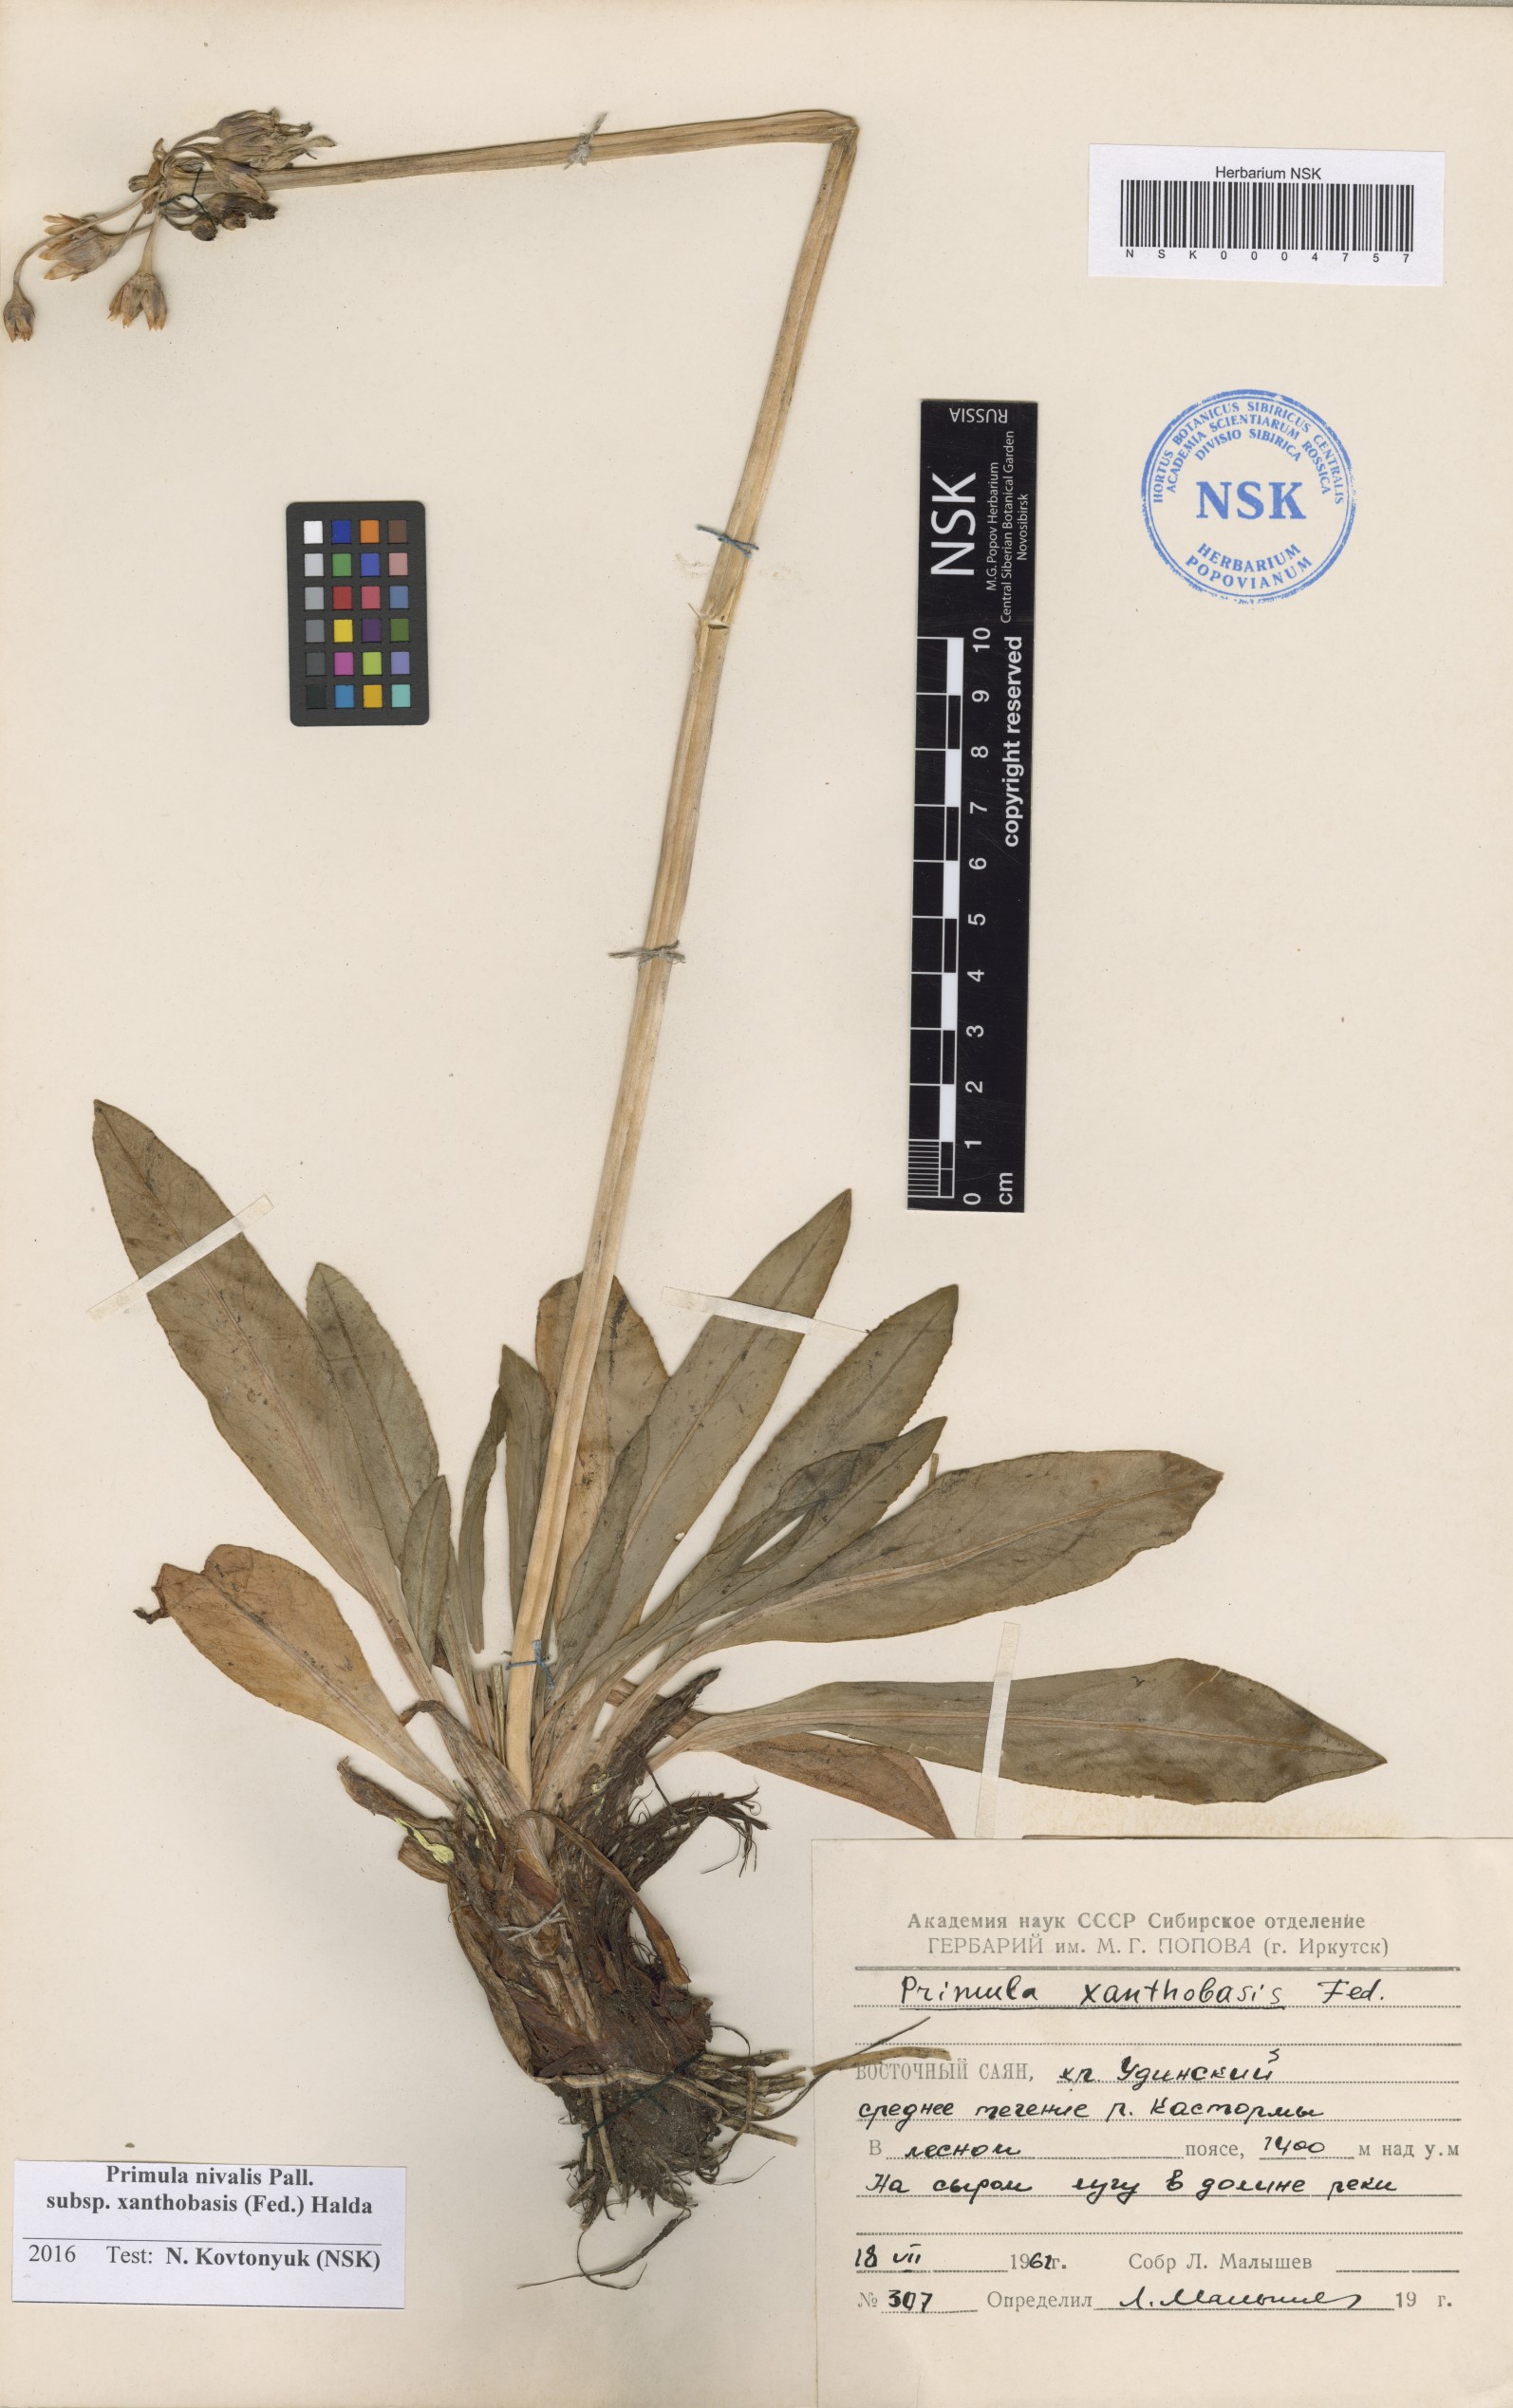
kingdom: Plantae
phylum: Tracheophyta
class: Magnoliopsida
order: Ericales
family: Primulaceae
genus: Primula
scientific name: Primula nivalis
